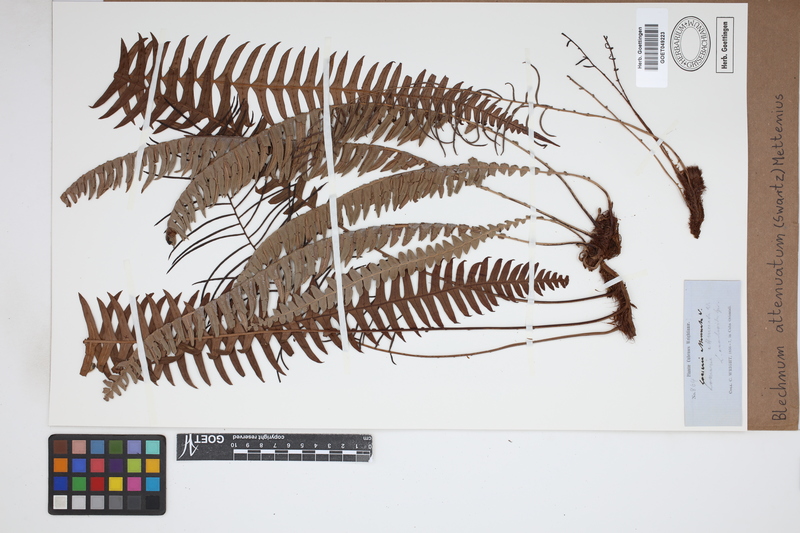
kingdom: Plantae
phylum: Tracheophyta
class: Polypodiopsida
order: Polypodiales
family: Blechnaceae
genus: Lomaridium
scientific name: Lomaridium attenuatum
